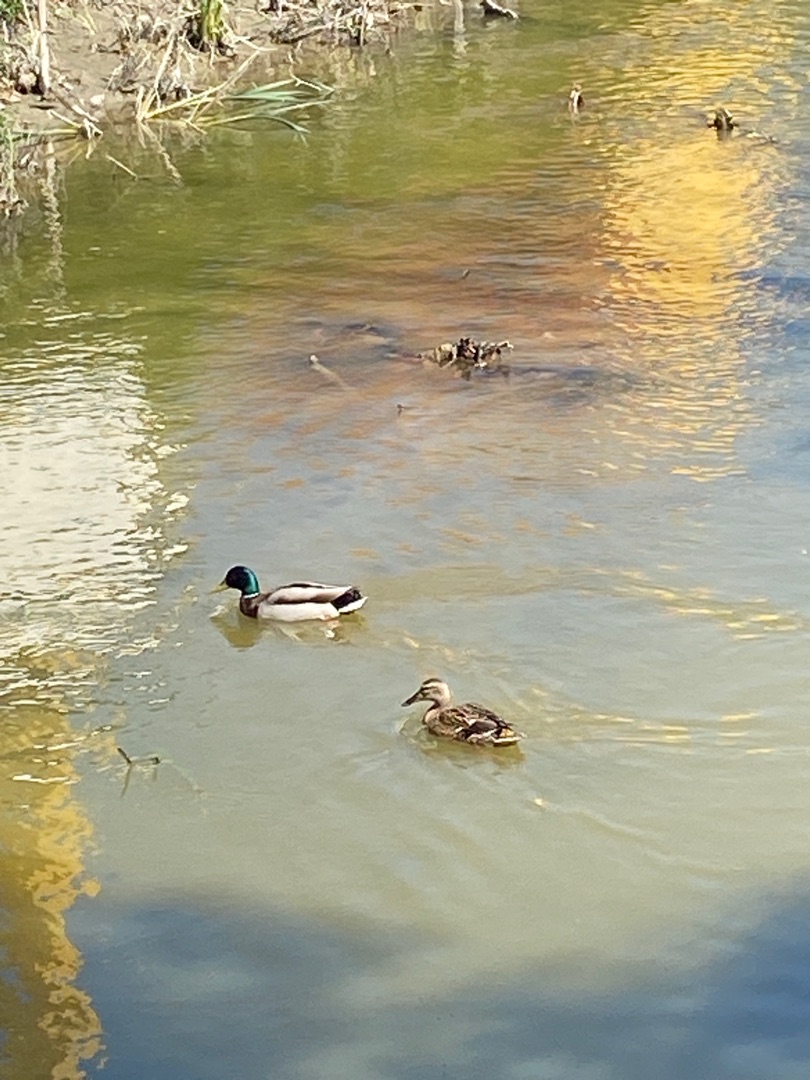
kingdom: Animalia
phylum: Chordata
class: Aves
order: Anseriformes
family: Anatidae
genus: Anas
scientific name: Anas platyrhynchos
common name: Gråand
